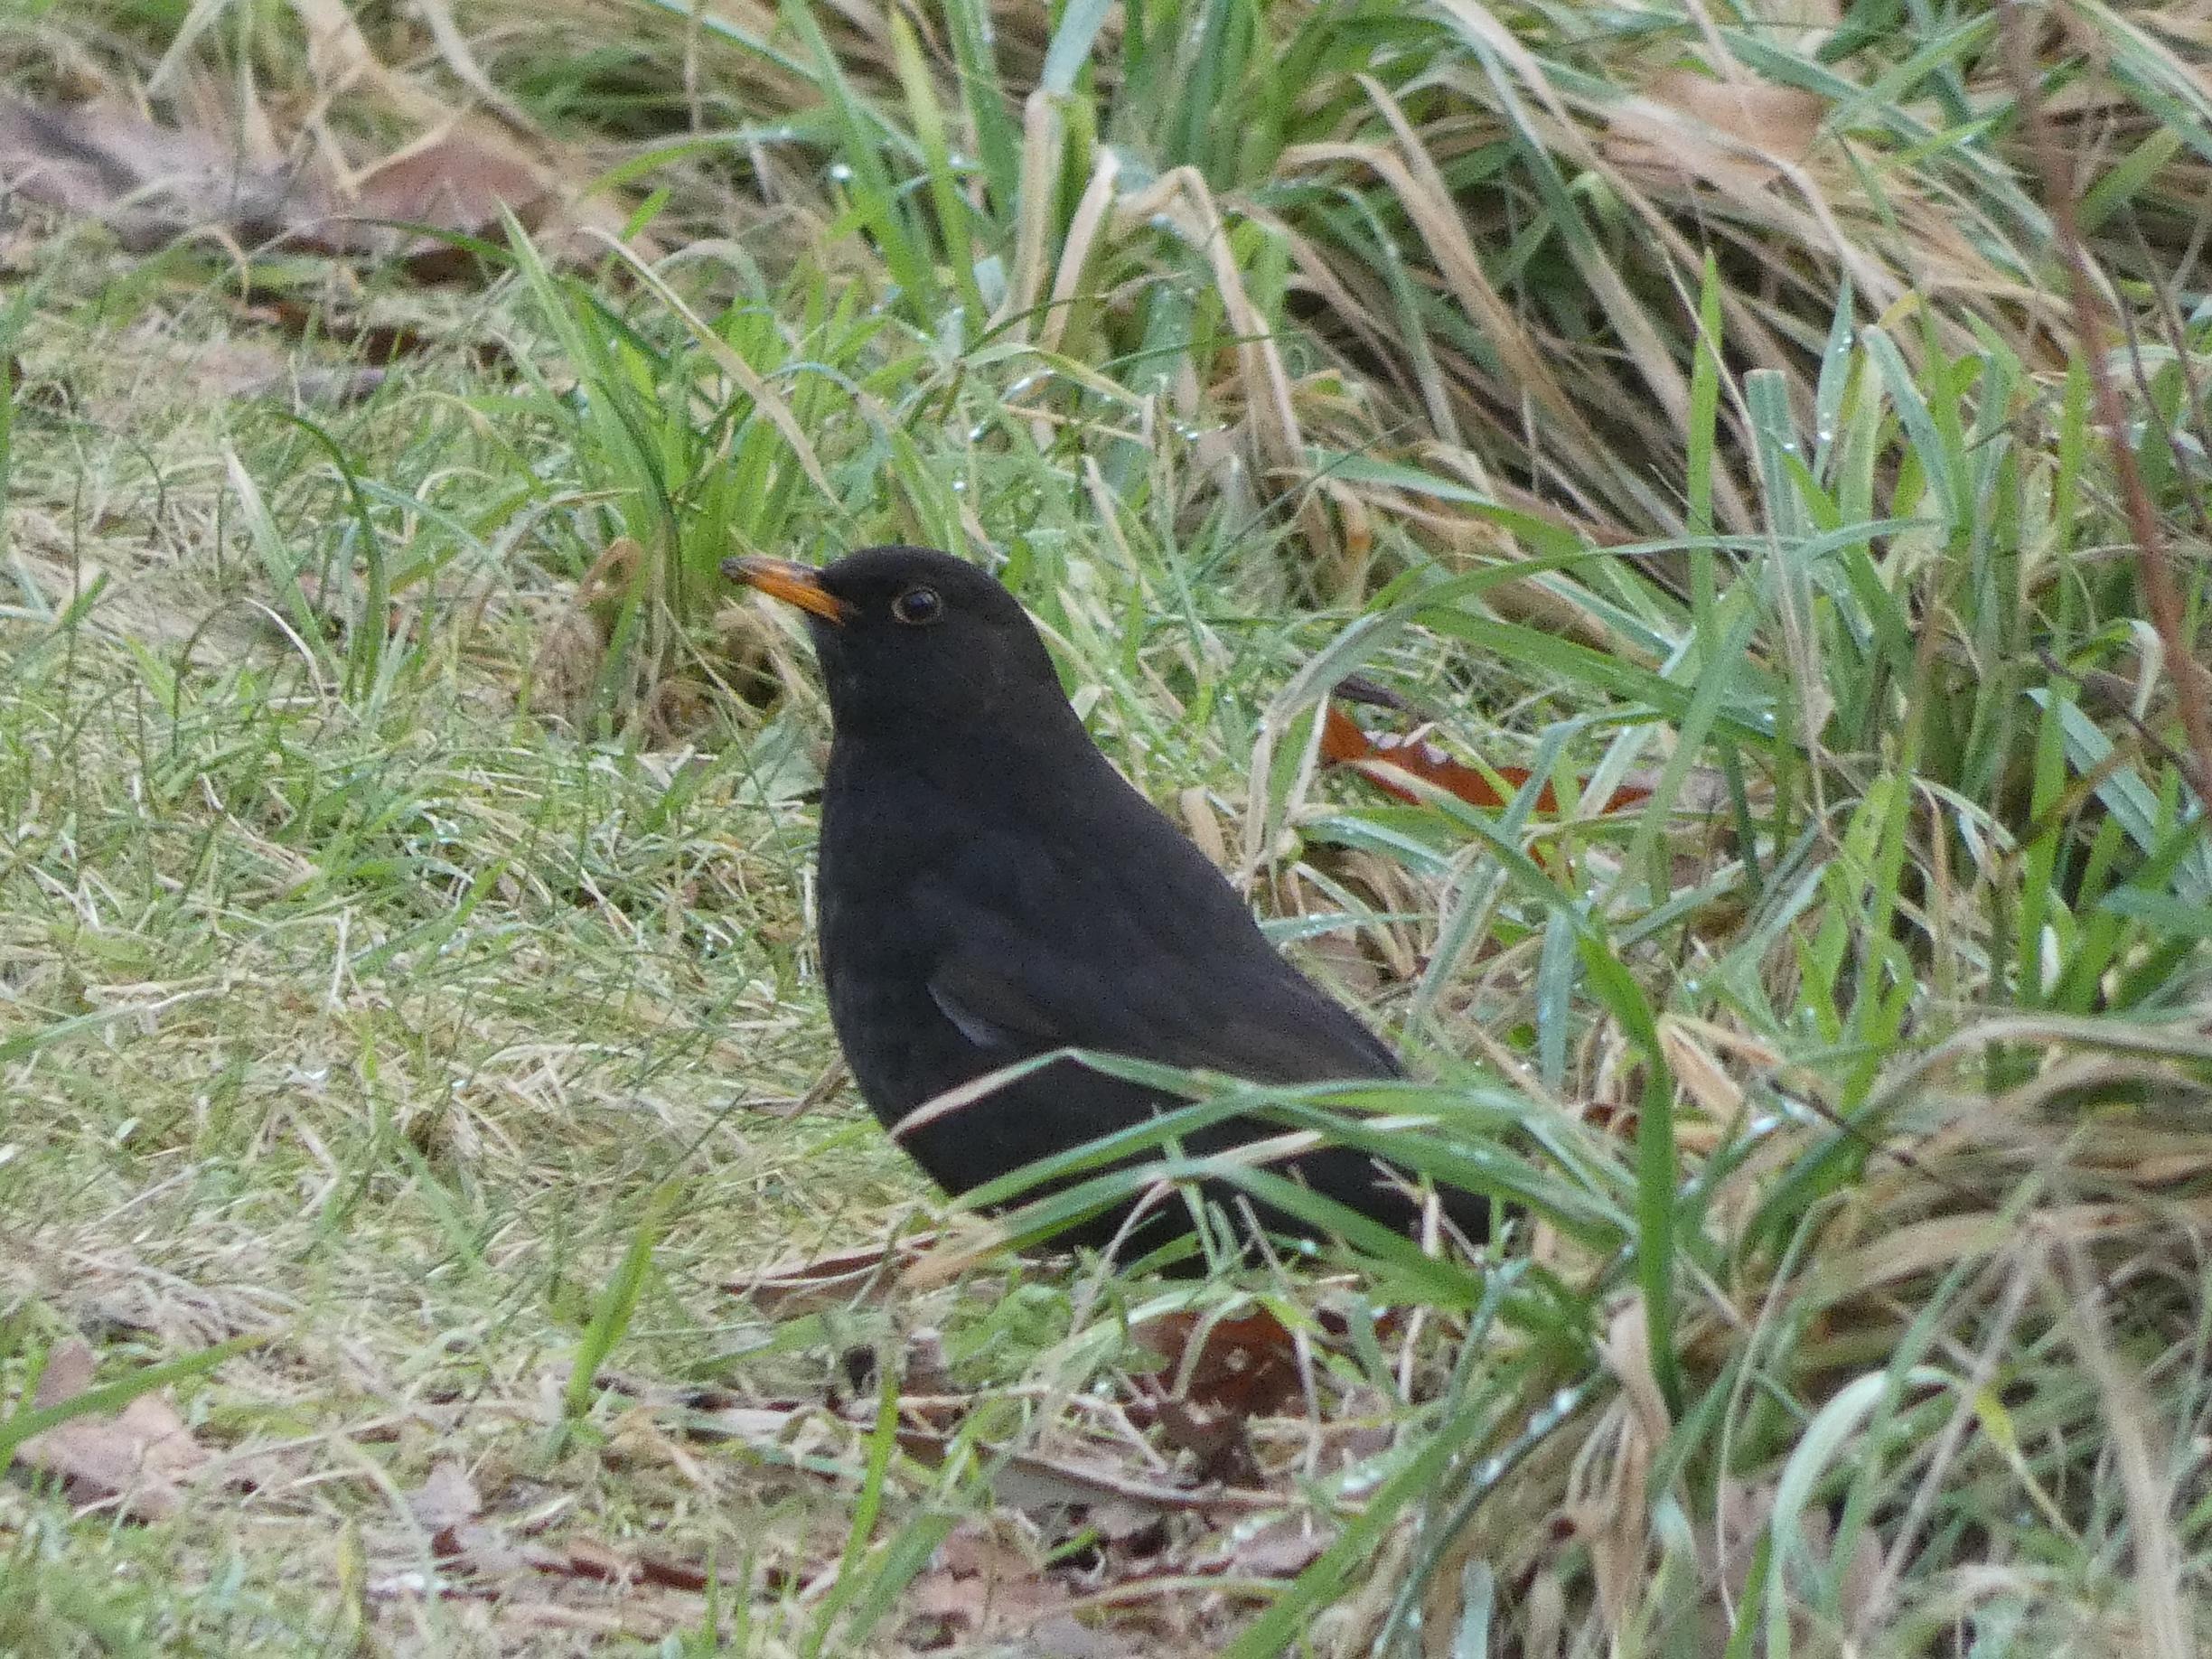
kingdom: Animalia
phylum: Chordata
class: Aves
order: Passeriformes
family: Turdidae
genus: Turdus
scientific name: Turdus merula
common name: Solsort
